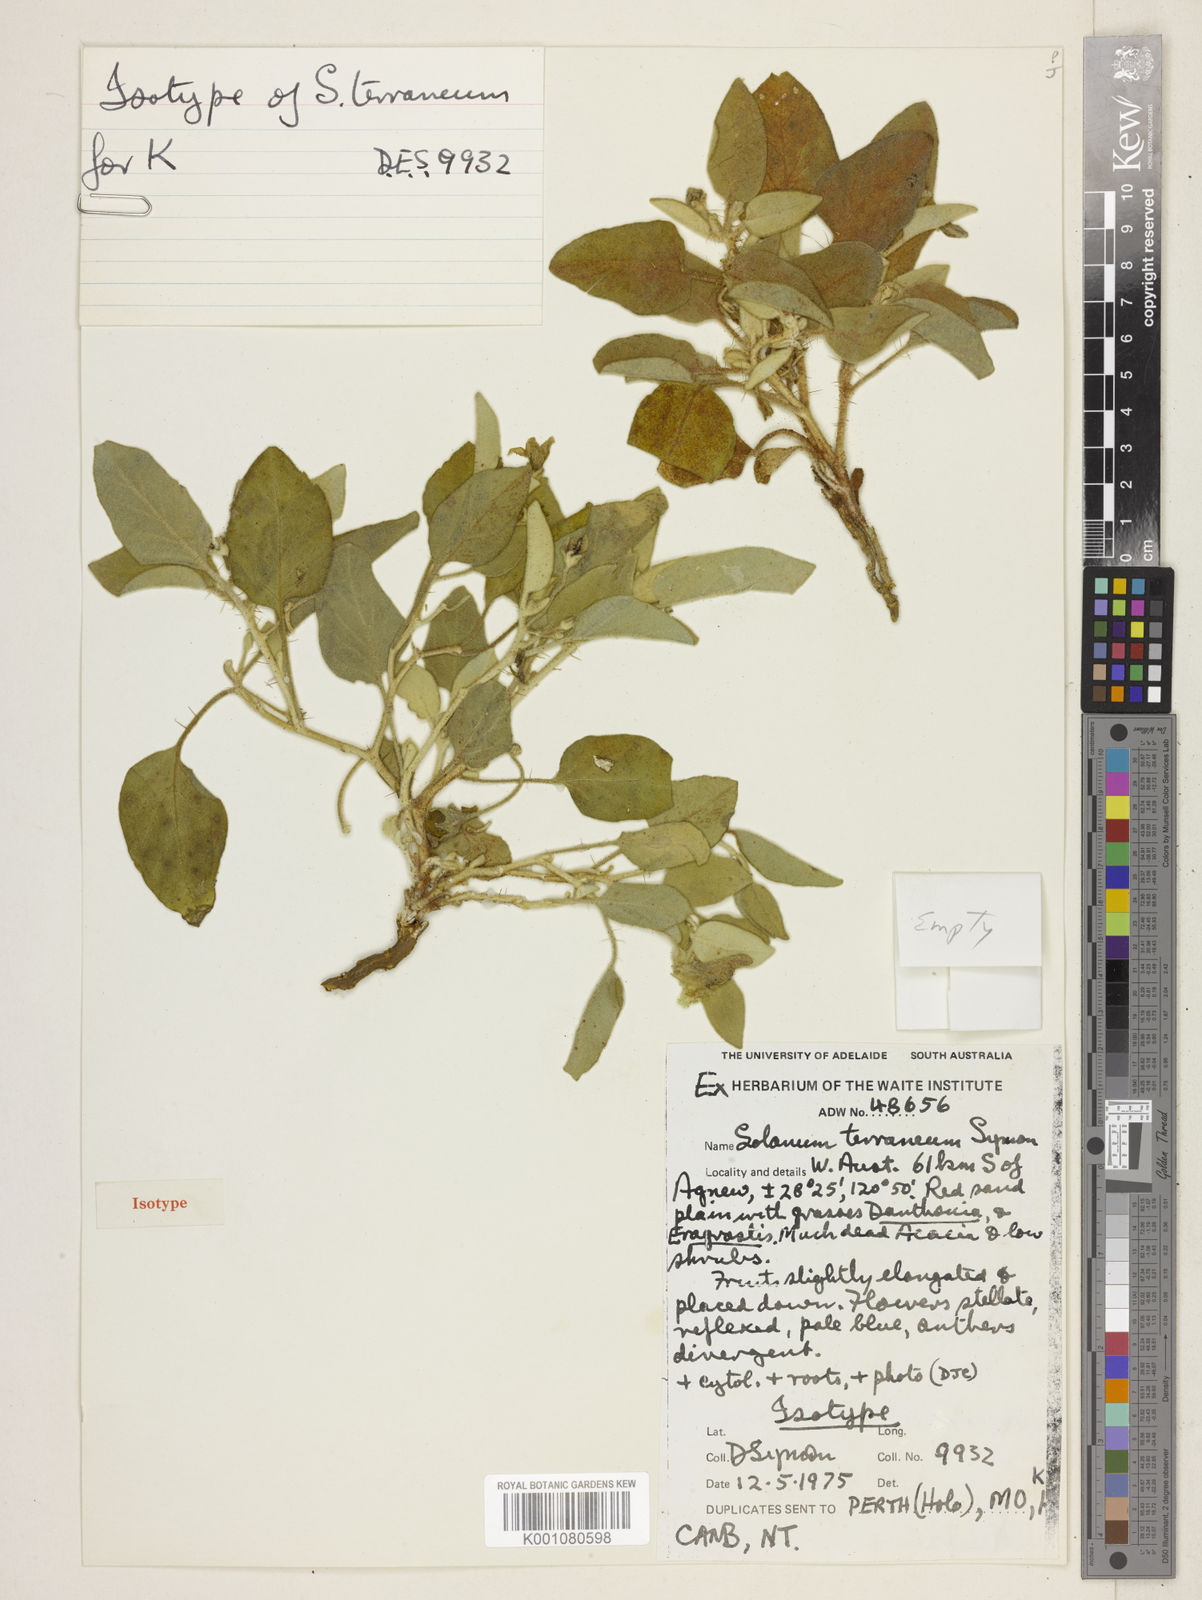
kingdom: Plantae
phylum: Tracheophyta
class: Magnoliopsida
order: Solanales
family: Solanaceae
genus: Solanum
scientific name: Solanum terraneum
